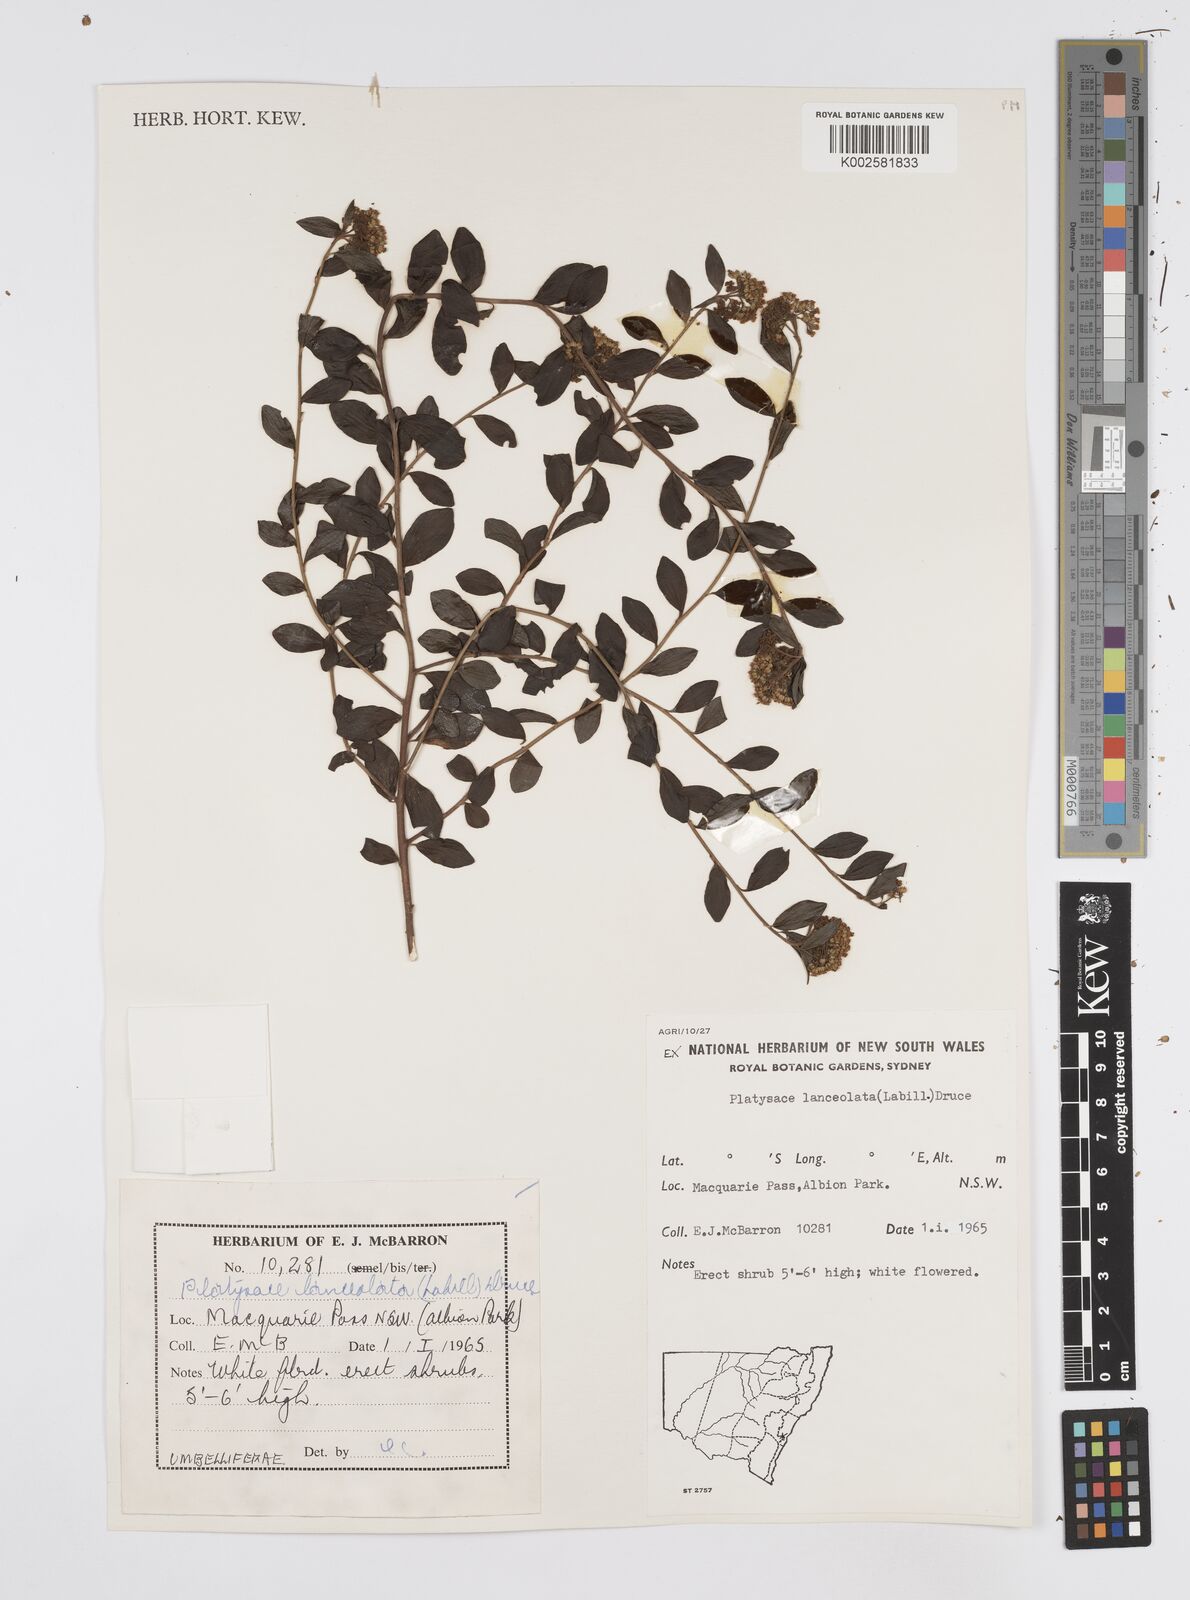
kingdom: Plantae
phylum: Tracheophyta
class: Magnoliopsida
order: Apiales
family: Apiaceae
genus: Platysace
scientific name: Platysace lanceolata
